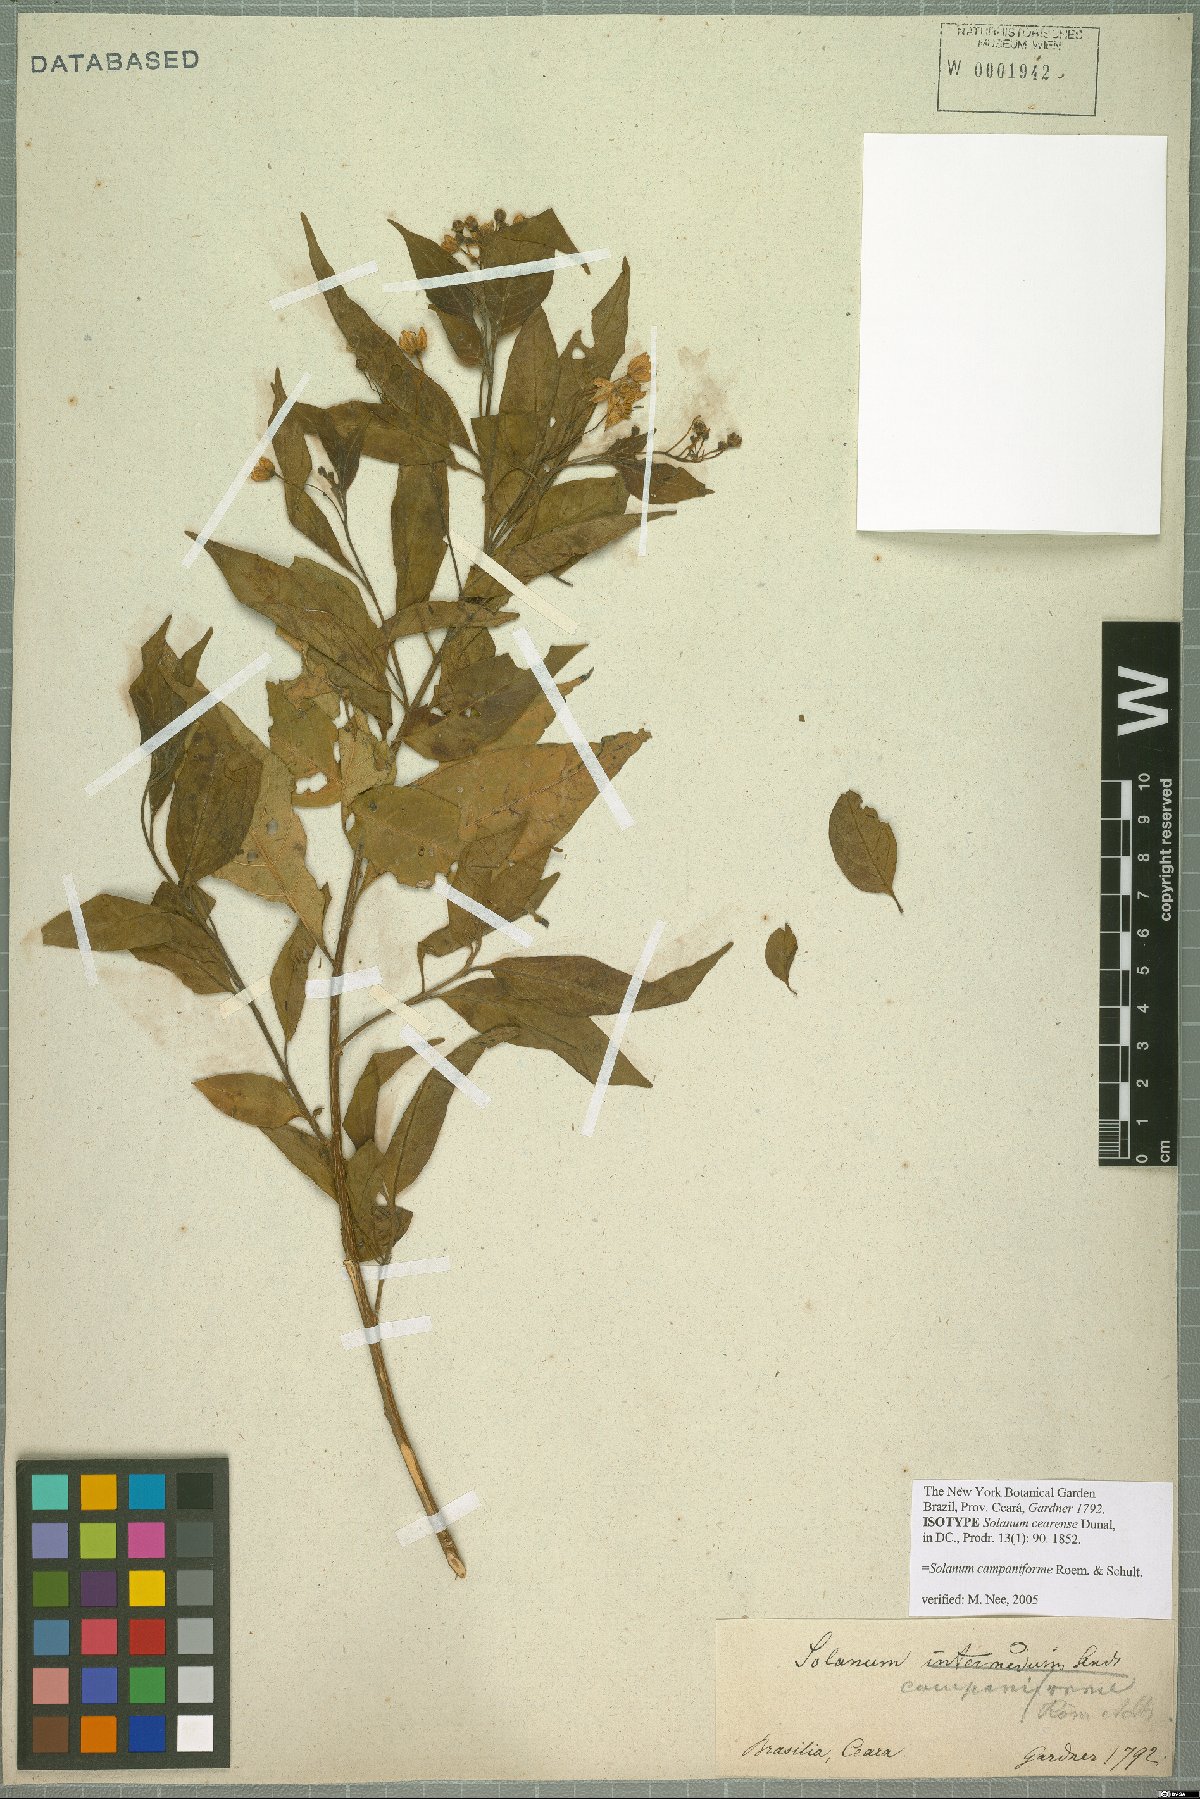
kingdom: Plantae
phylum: Tracheophyta
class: Magnoliopsida
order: Solanales
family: Solanaceae
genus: Solanum
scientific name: Solanum campaniforme
